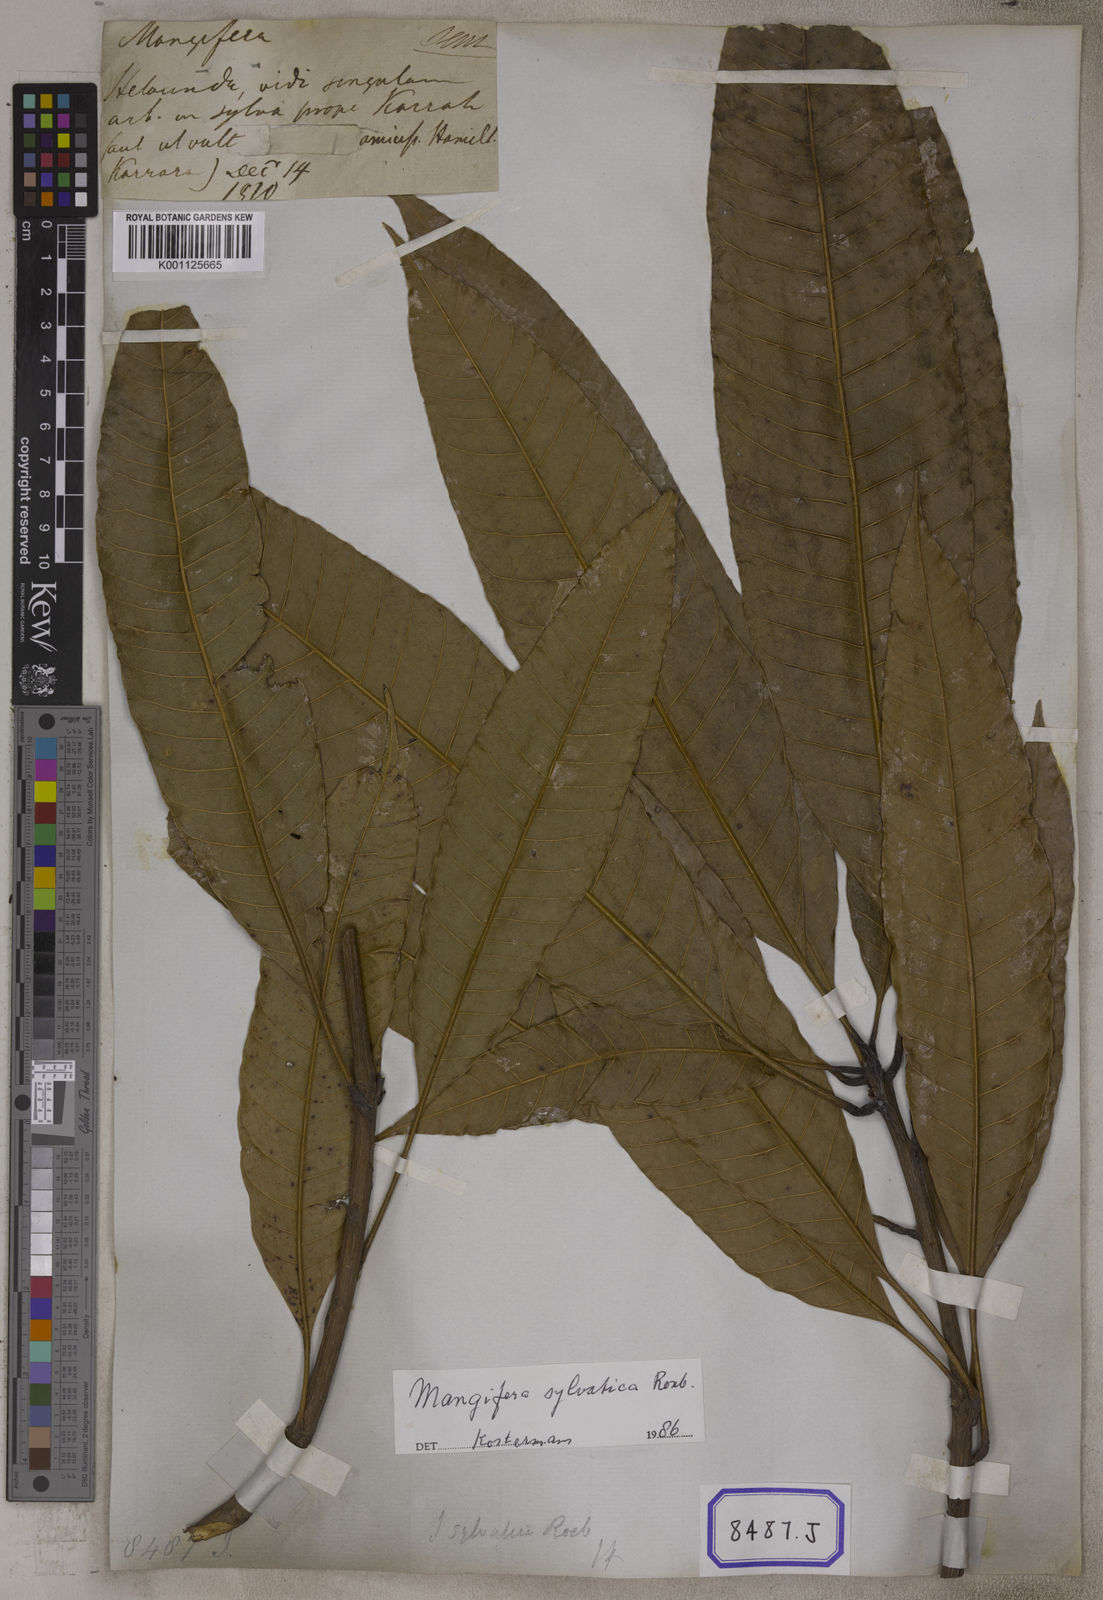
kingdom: Plantae
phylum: Tracheophyta
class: Magnoliopsida
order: Sapindales
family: Anacardiaceae
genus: Mangifera
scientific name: Mangifera indica
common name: Mango
